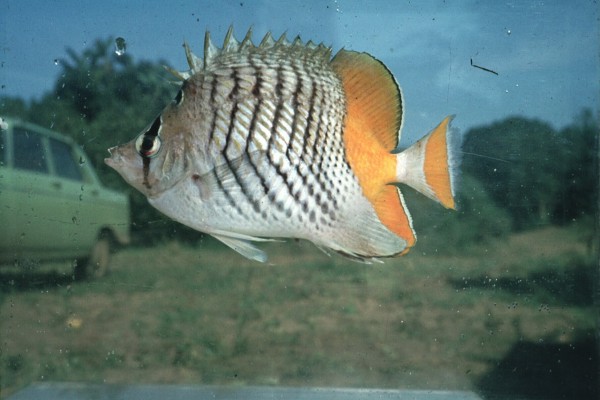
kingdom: Animalia
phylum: Chordata
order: Perciformes
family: Chaetodontidae
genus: Chaetodon
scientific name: Chaetodon madagaskariensis
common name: Madagascar butterflyfish
